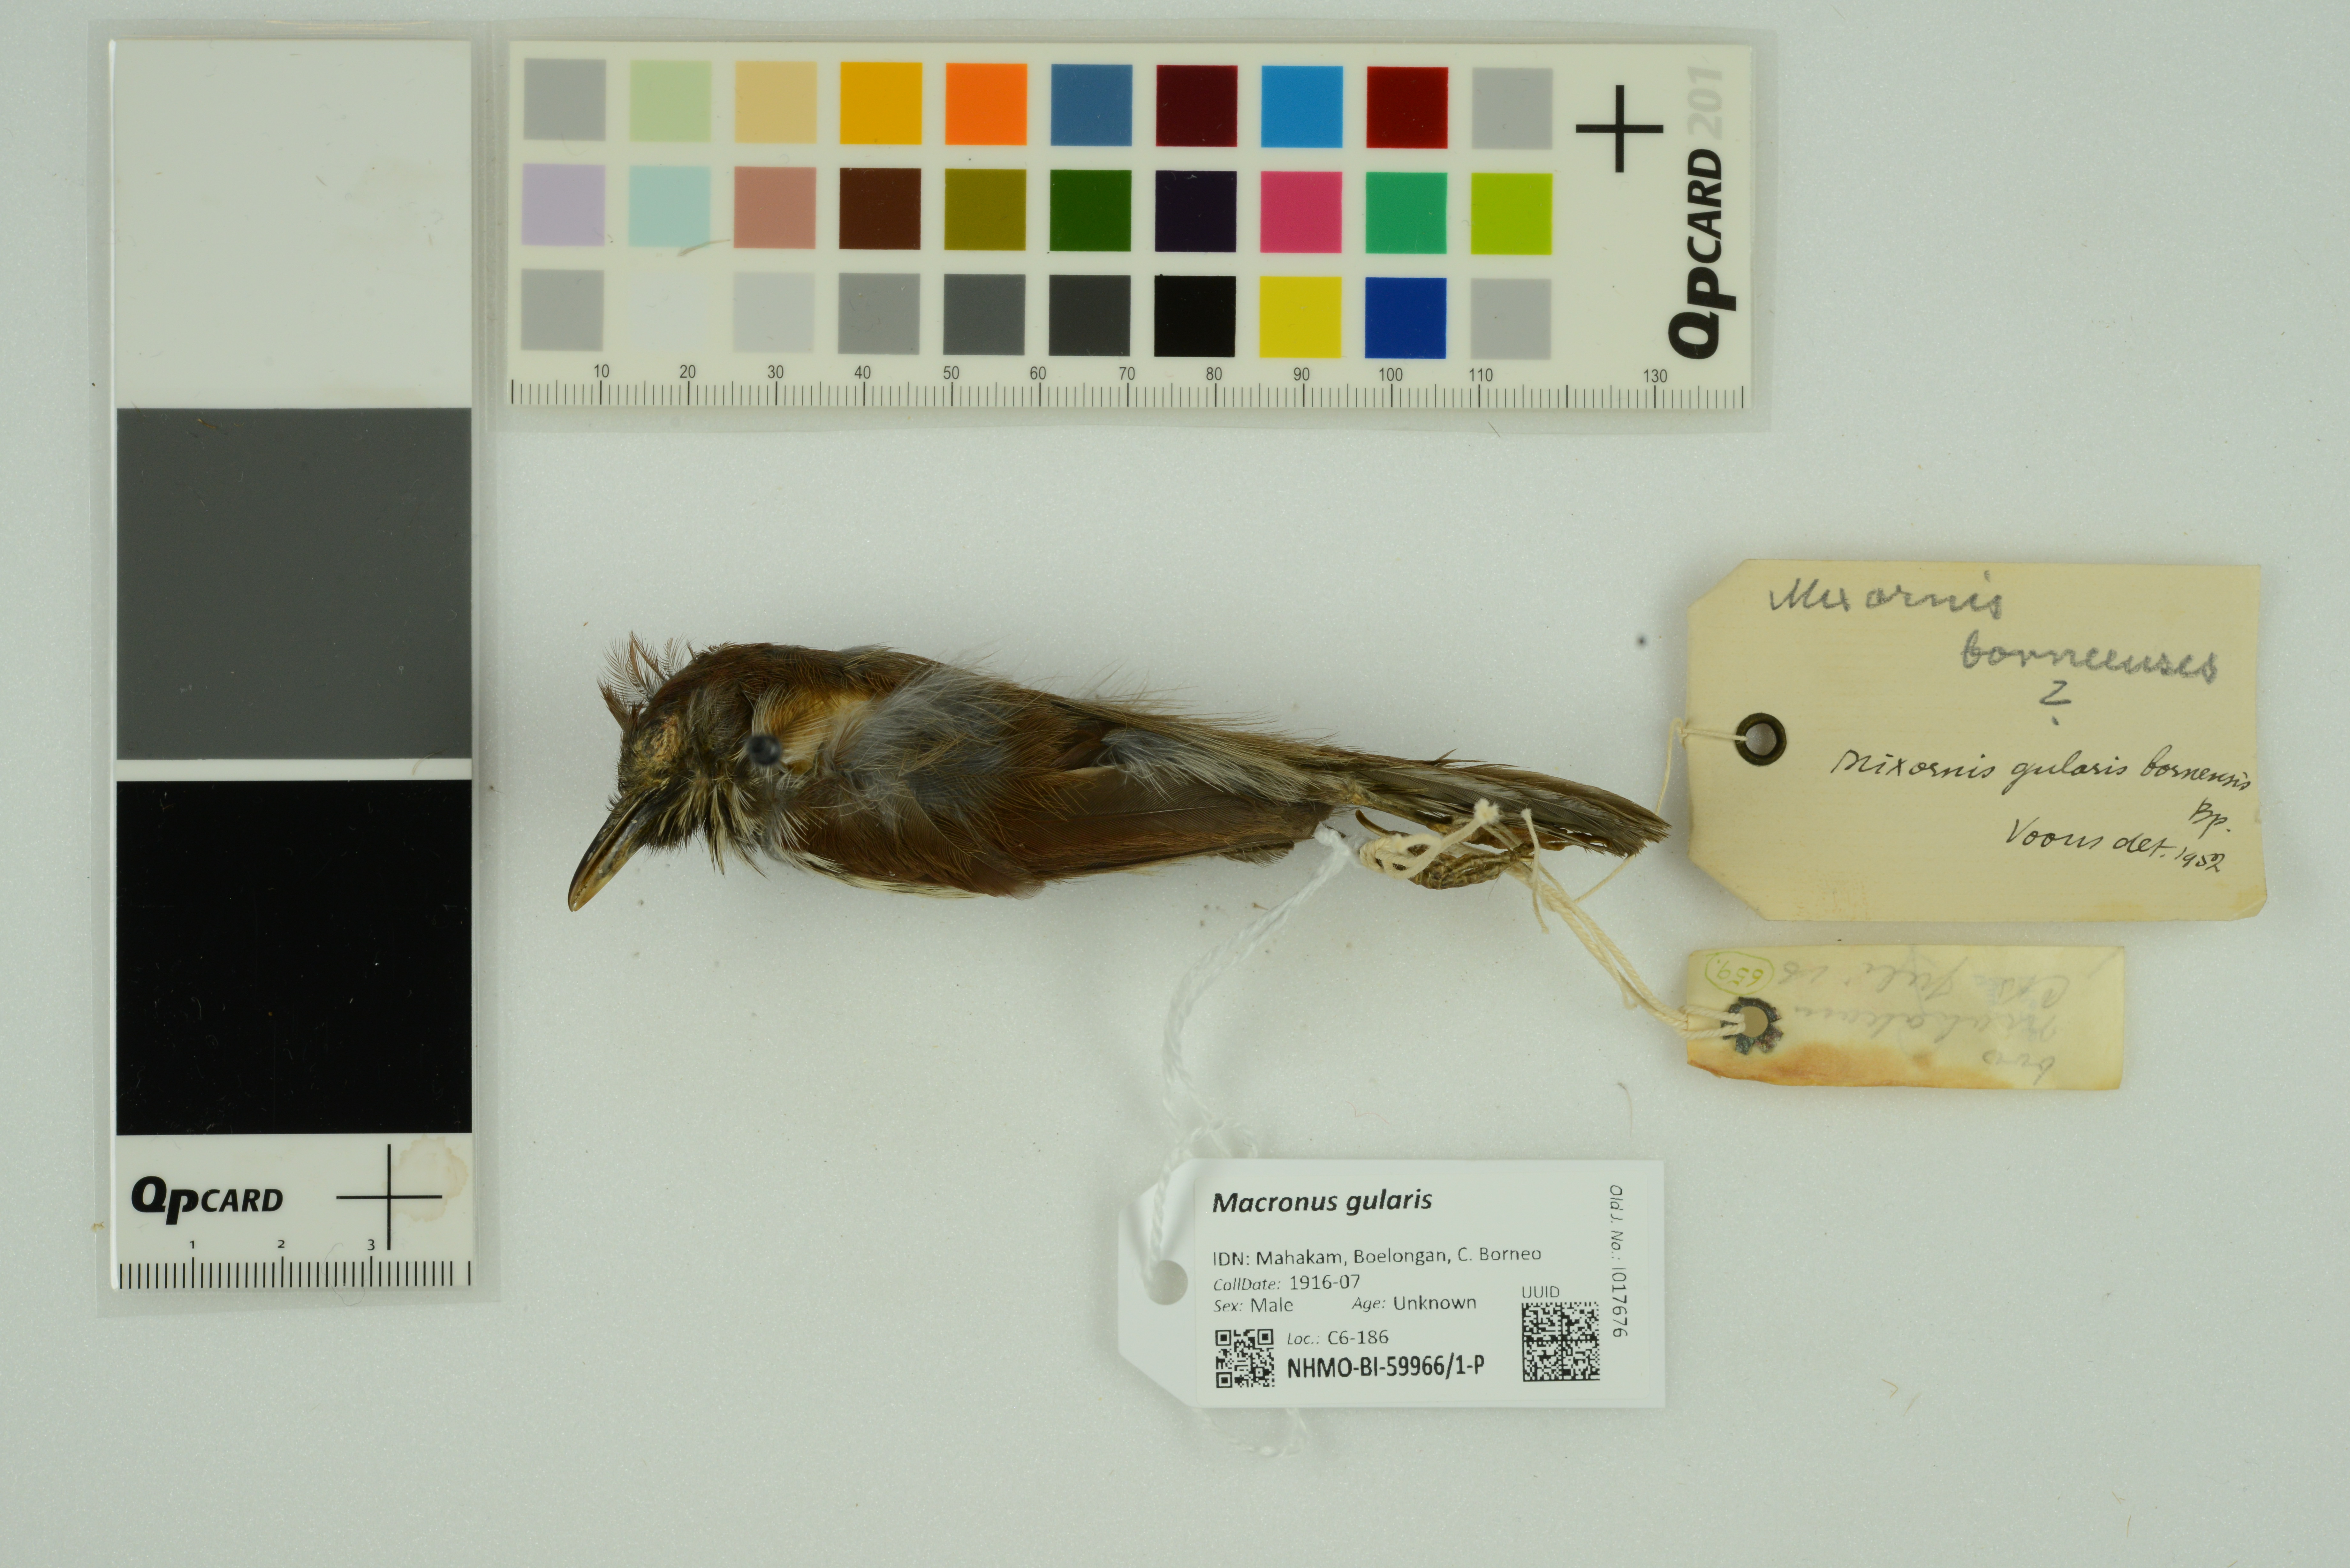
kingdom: Animalia
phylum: Chordata
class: Aves
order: Passeriformes
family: Timaliidae
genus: Macronus
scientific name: Macronus gularis
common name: Striped tit-babbler
